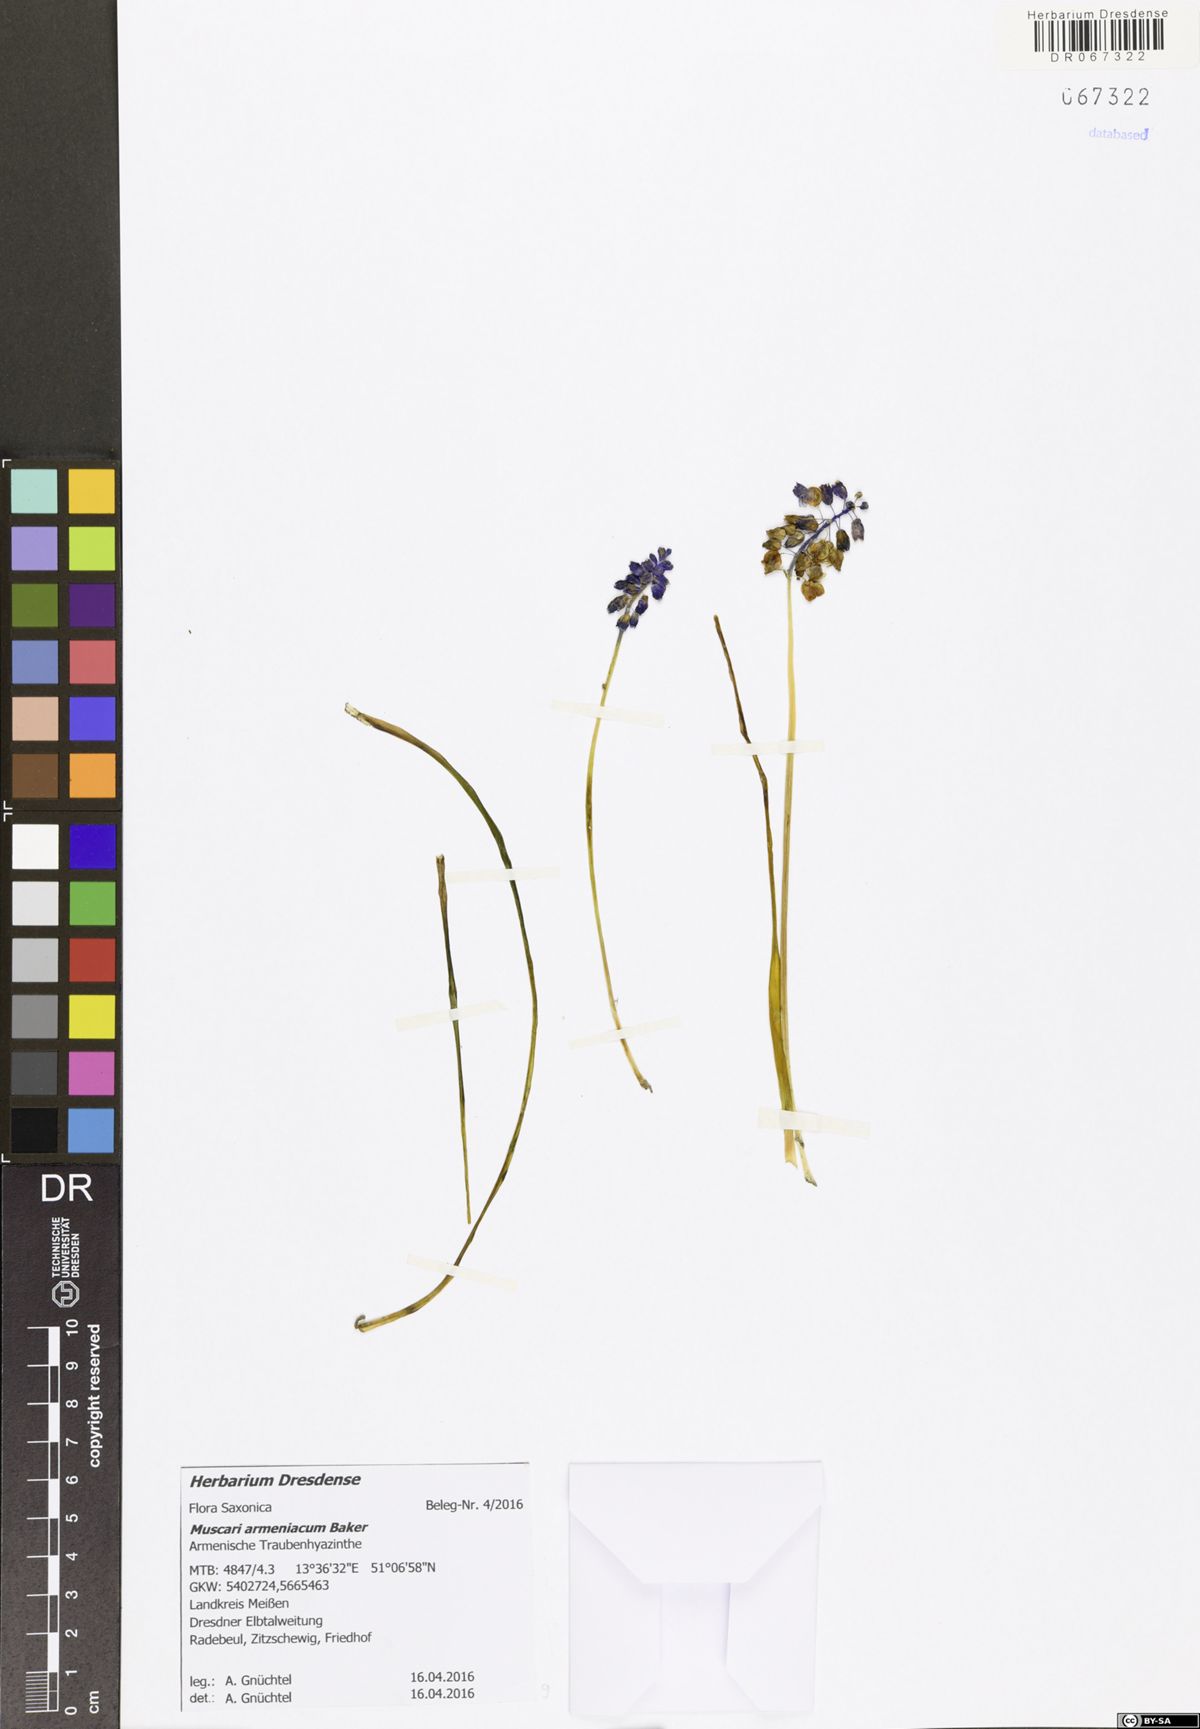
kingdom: Plantae
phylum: Tracheophyta
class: Liliopsida
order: Asparagales
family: Asparagaceae
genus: Muscari
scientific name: Muscari armeniacum
